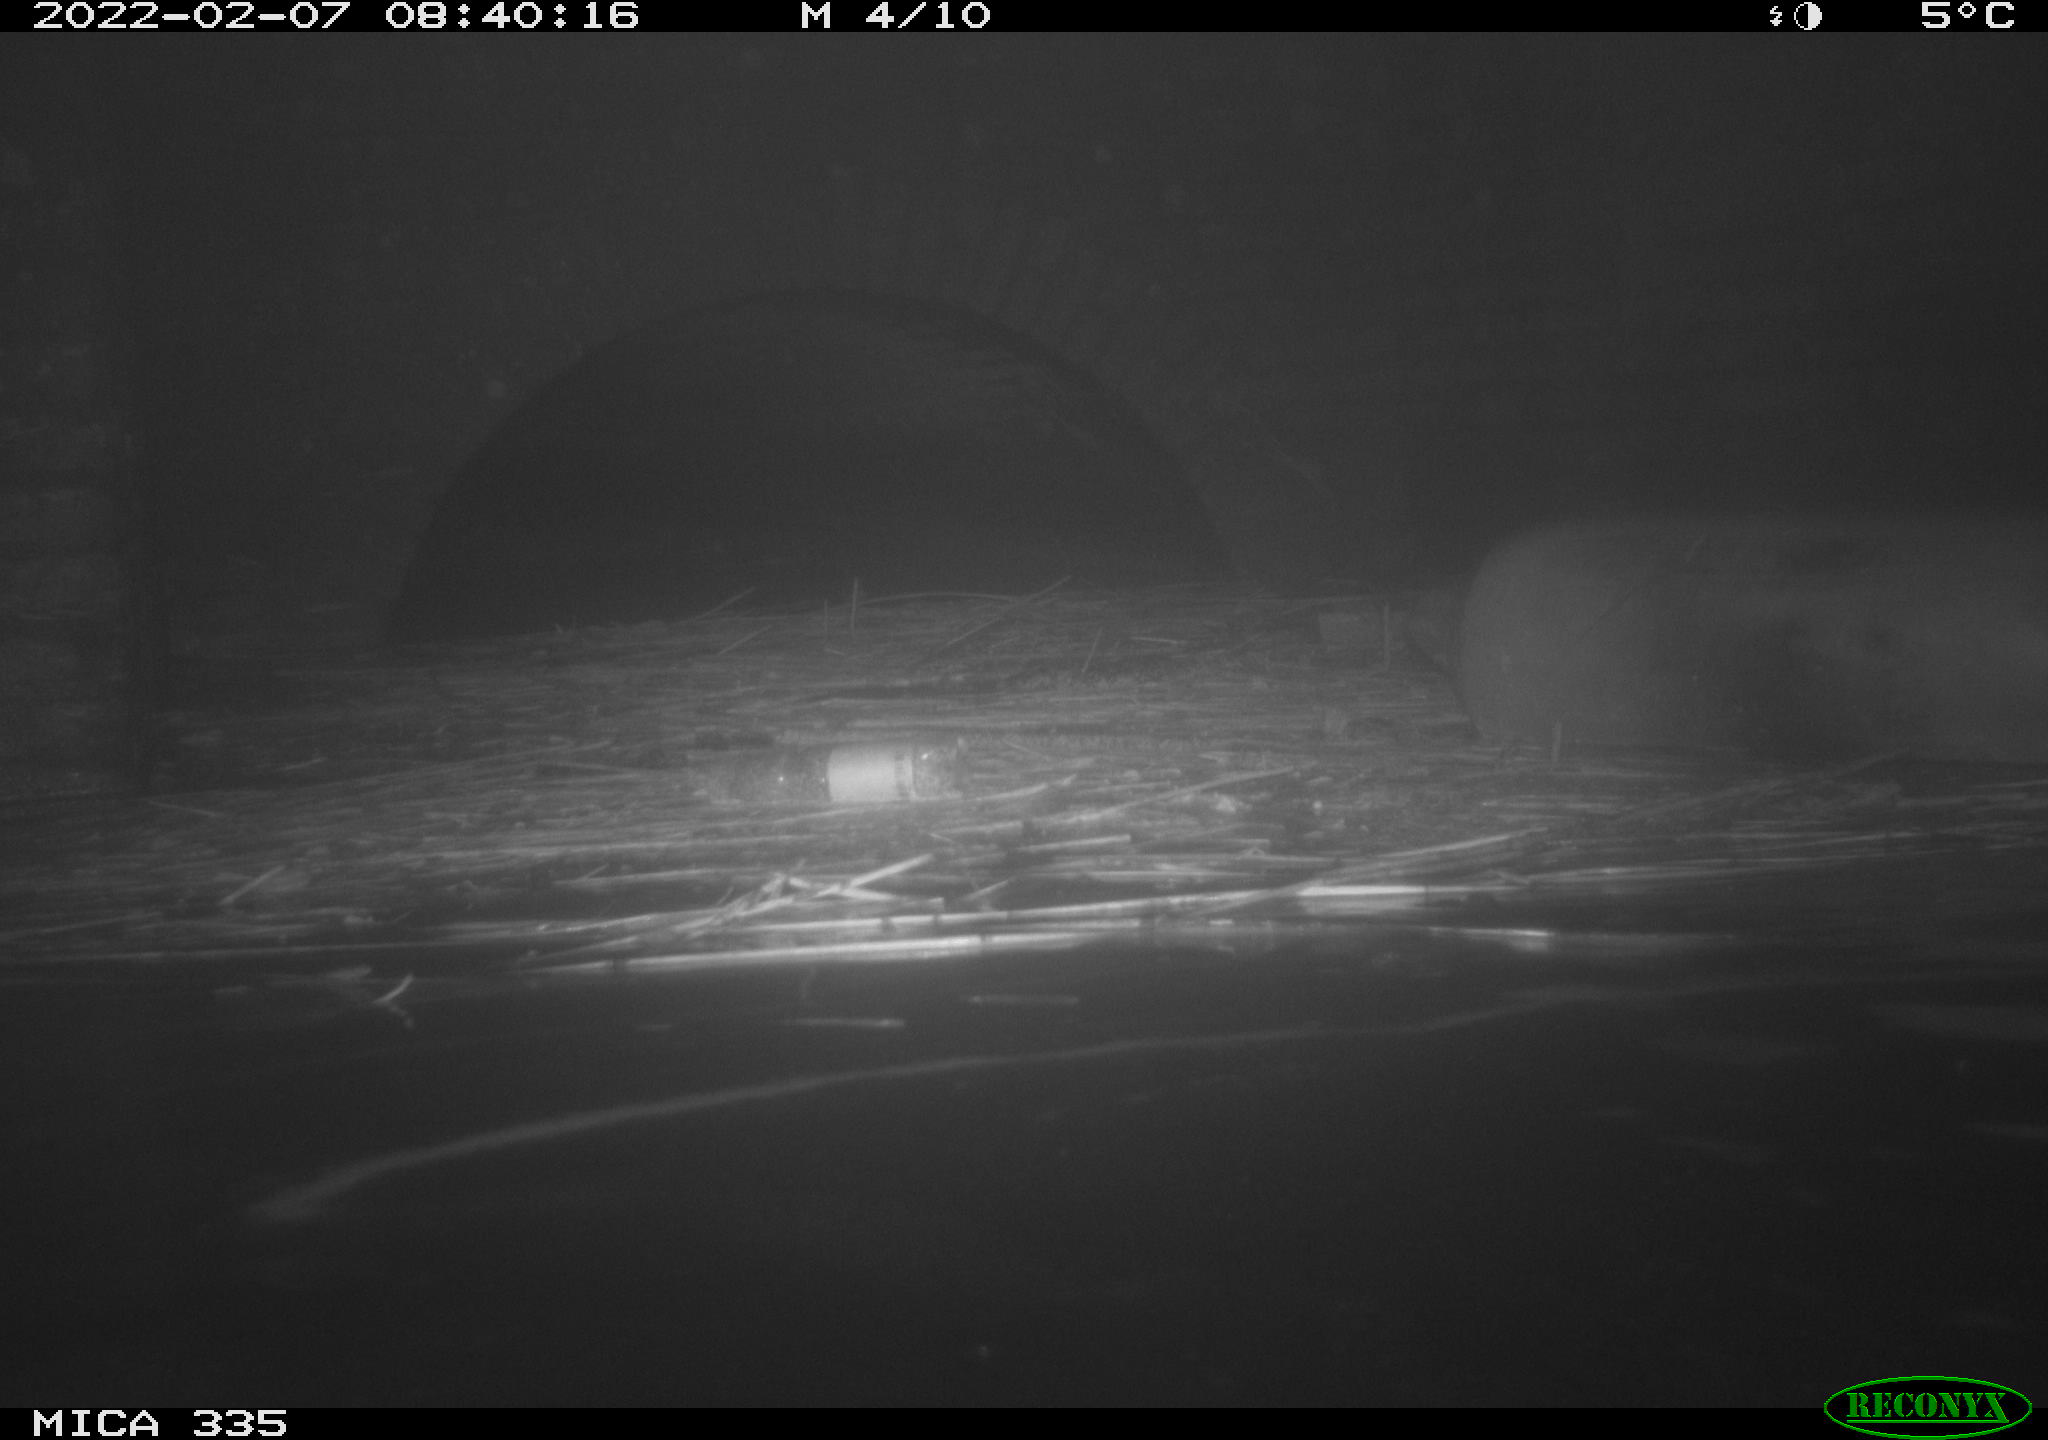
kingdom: Animalia
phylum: Chordata
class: Aves
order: Suliformes
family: Phalacrocoracidae
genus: Phalacrocorax
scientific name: Phalacrocorax carbo
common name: Great cormorant
